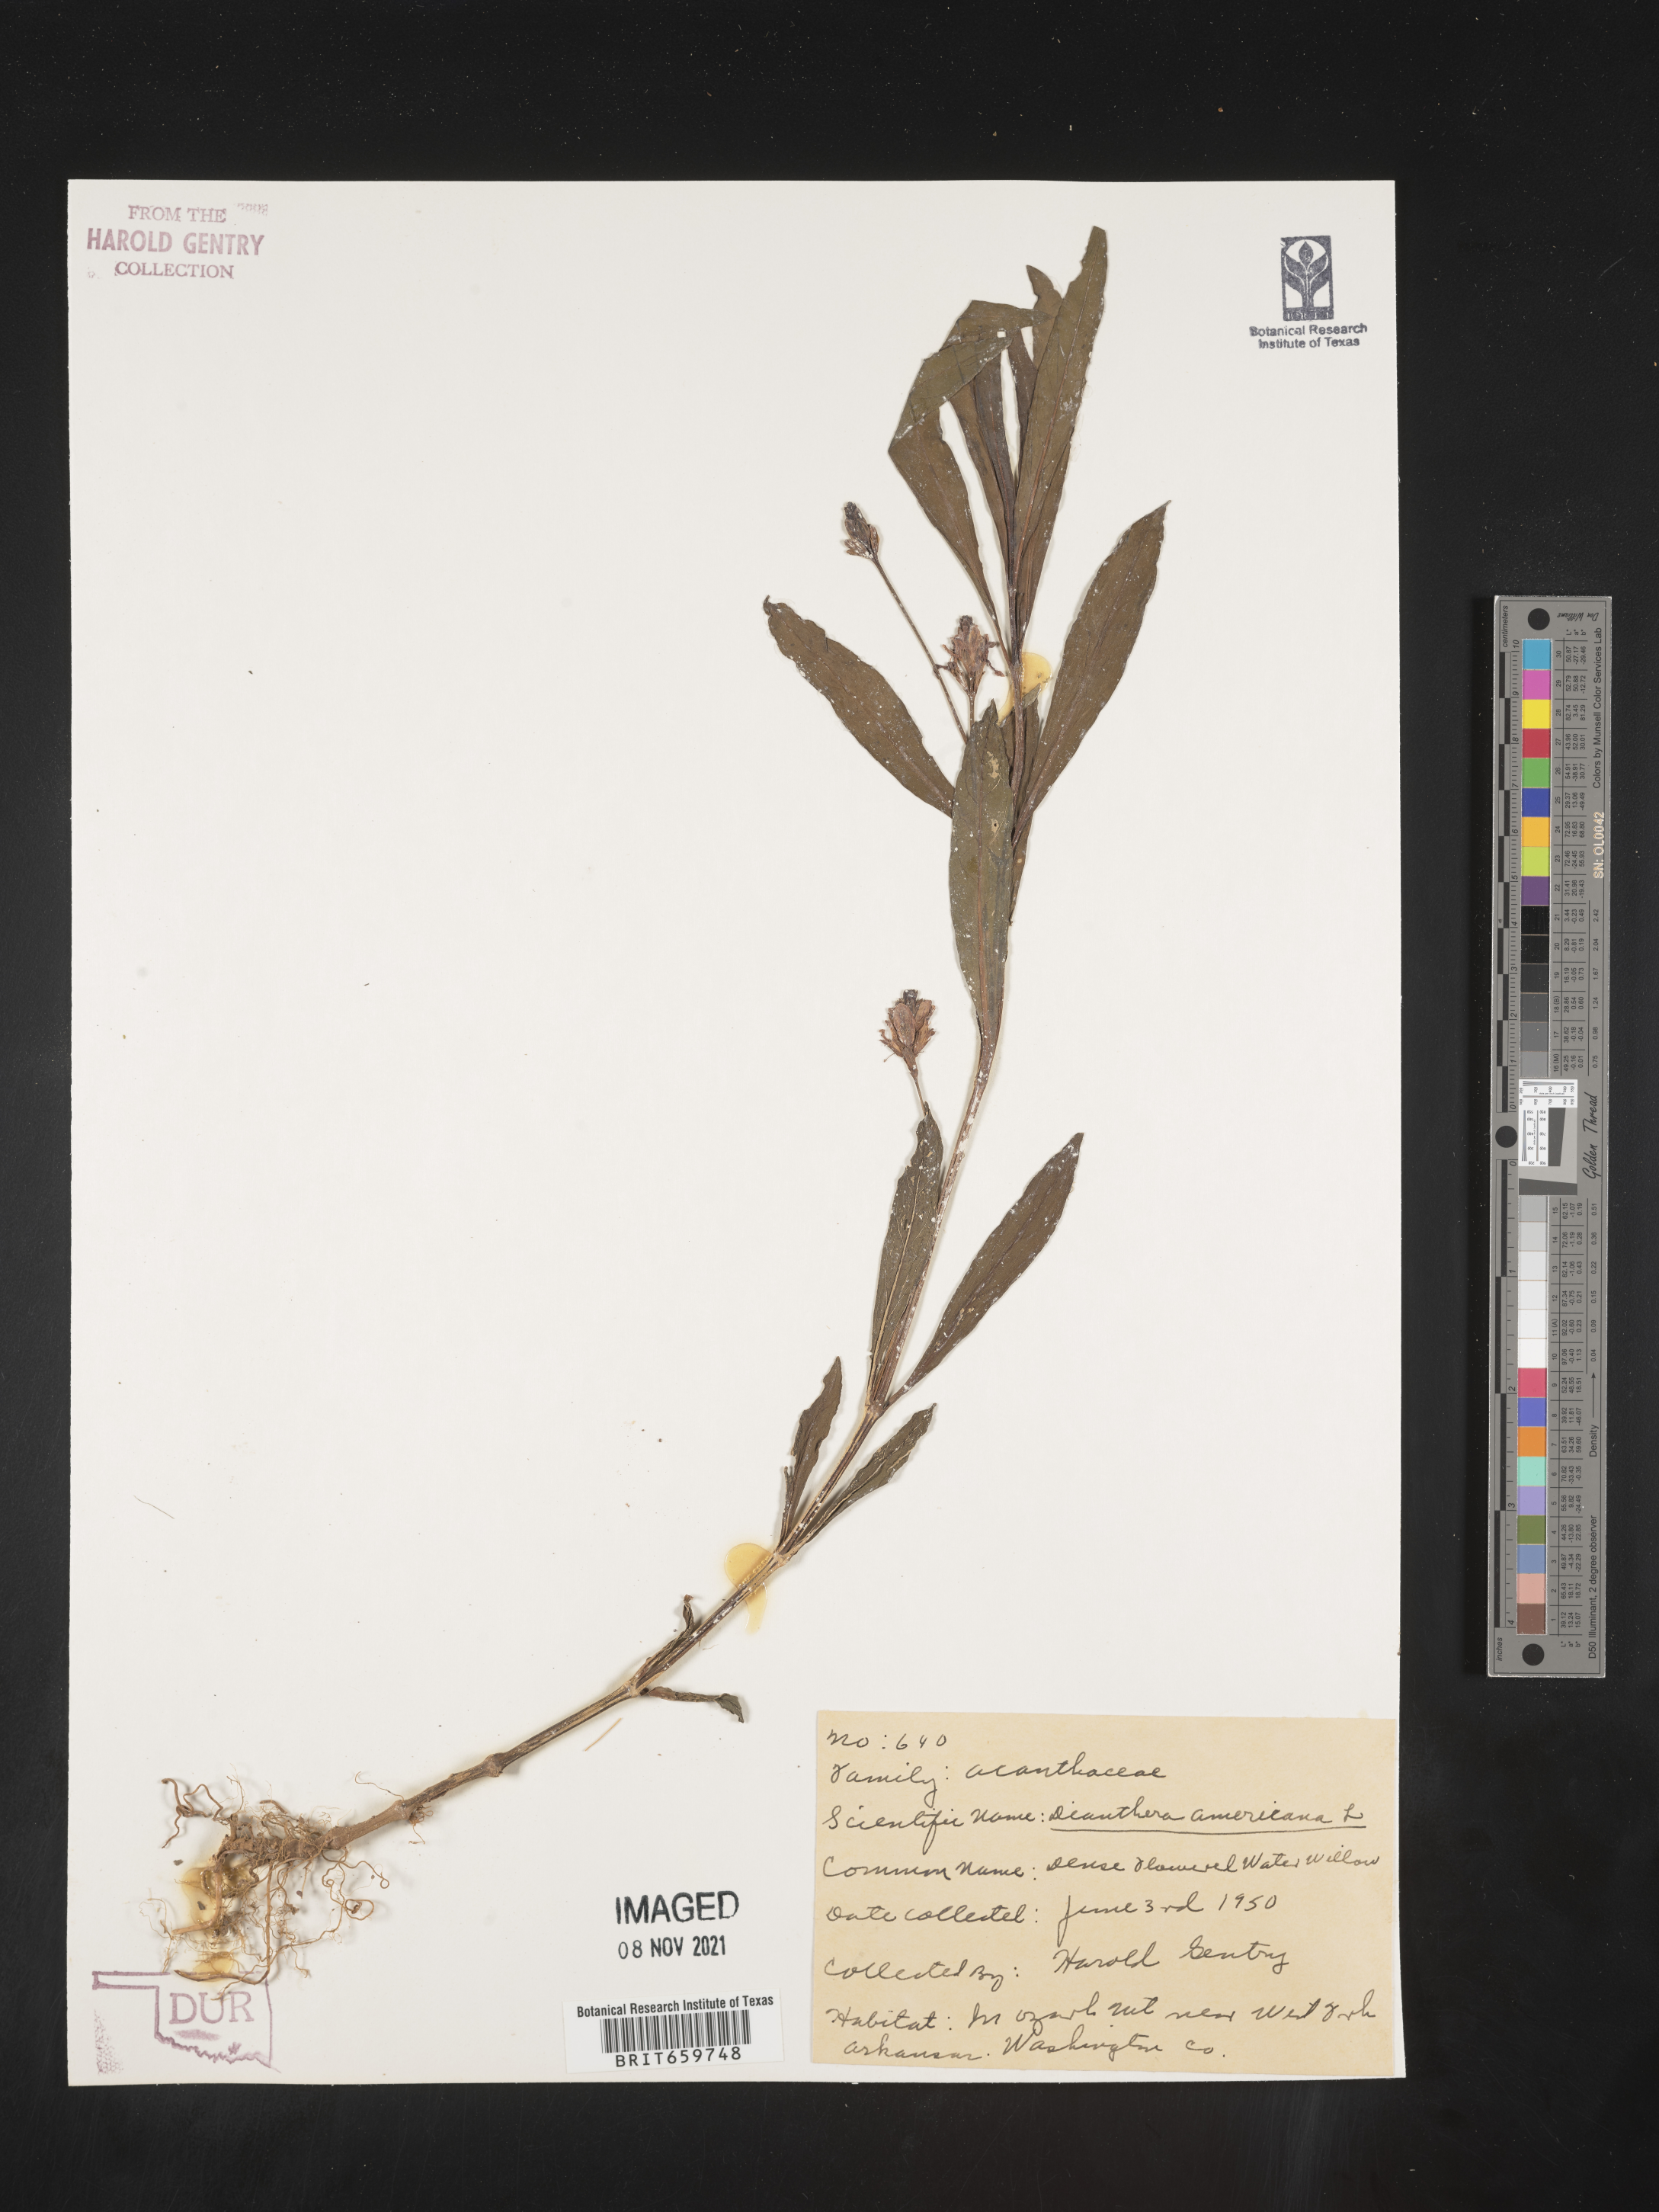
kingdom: Plantae
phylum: Tracheophyta
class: Magnoliopsida
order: Lamiales
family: Acanthaceae
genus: Dianthera
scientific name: Dianthera americana
